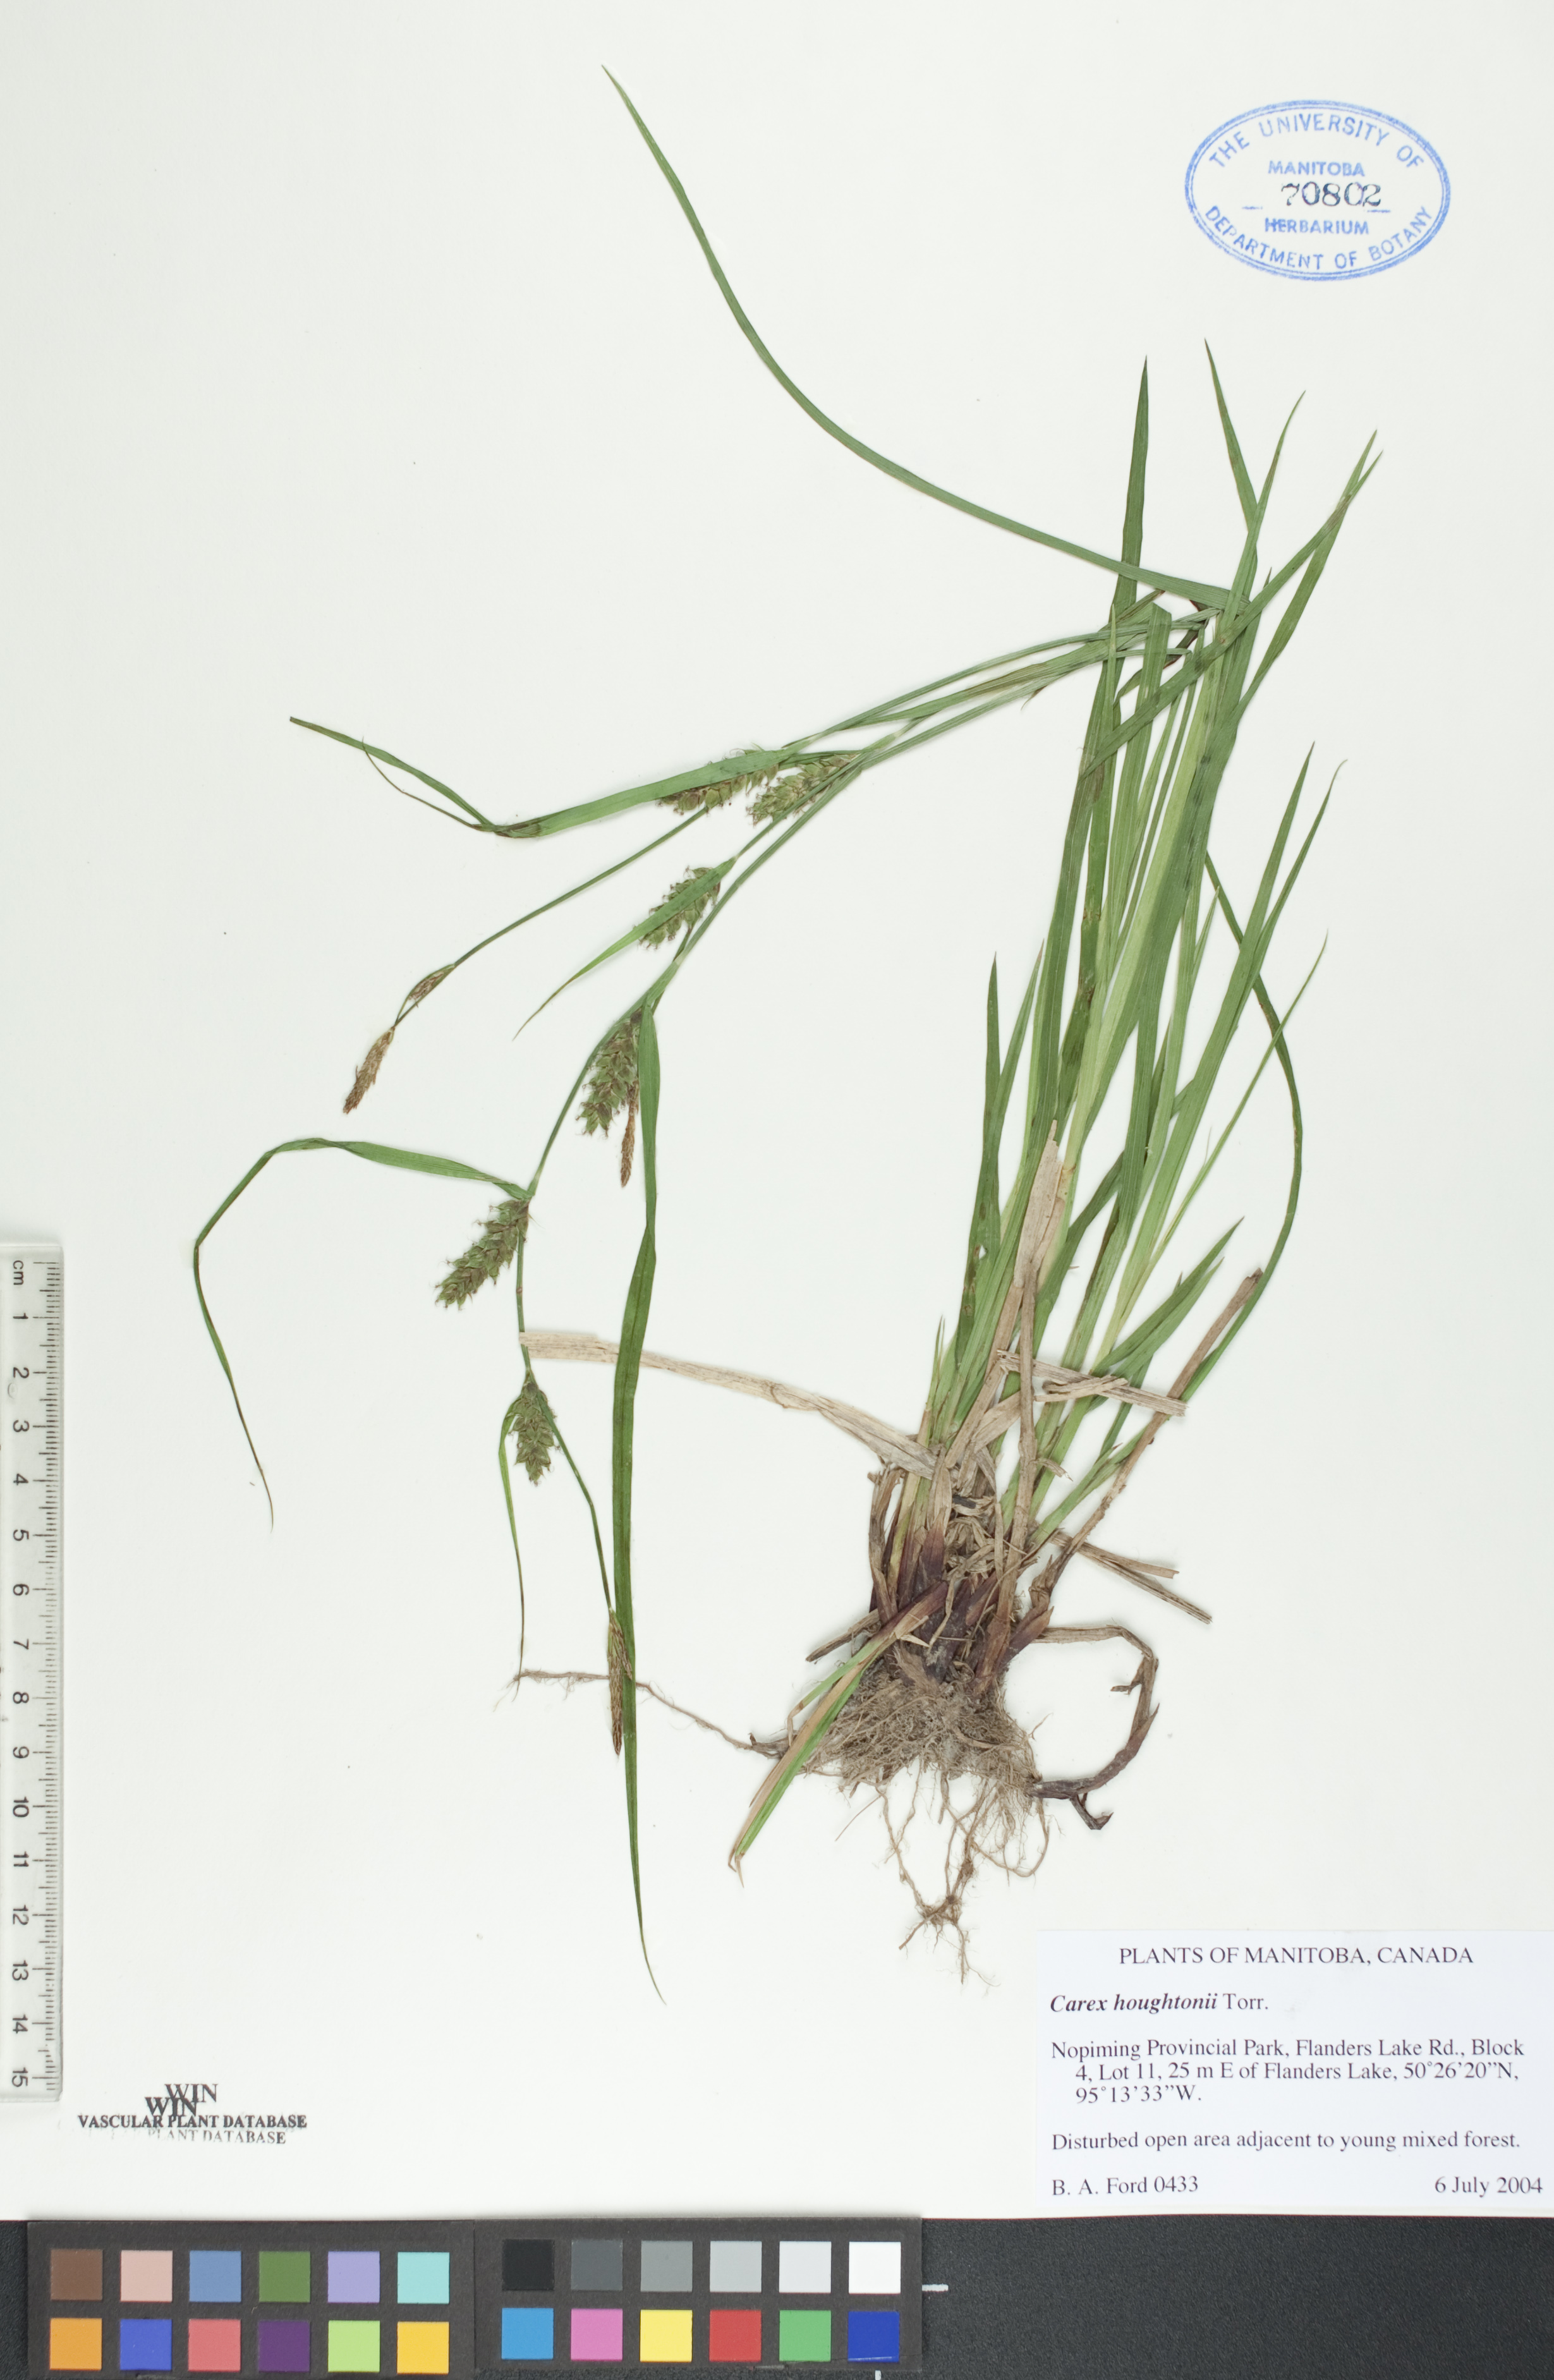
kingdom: Plantae
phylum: Tracheophyta
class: Liliopsida
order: Poales
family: Cyperaceae
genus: Carex
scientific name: Carex houghtoniana
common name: Houghton's sedge
